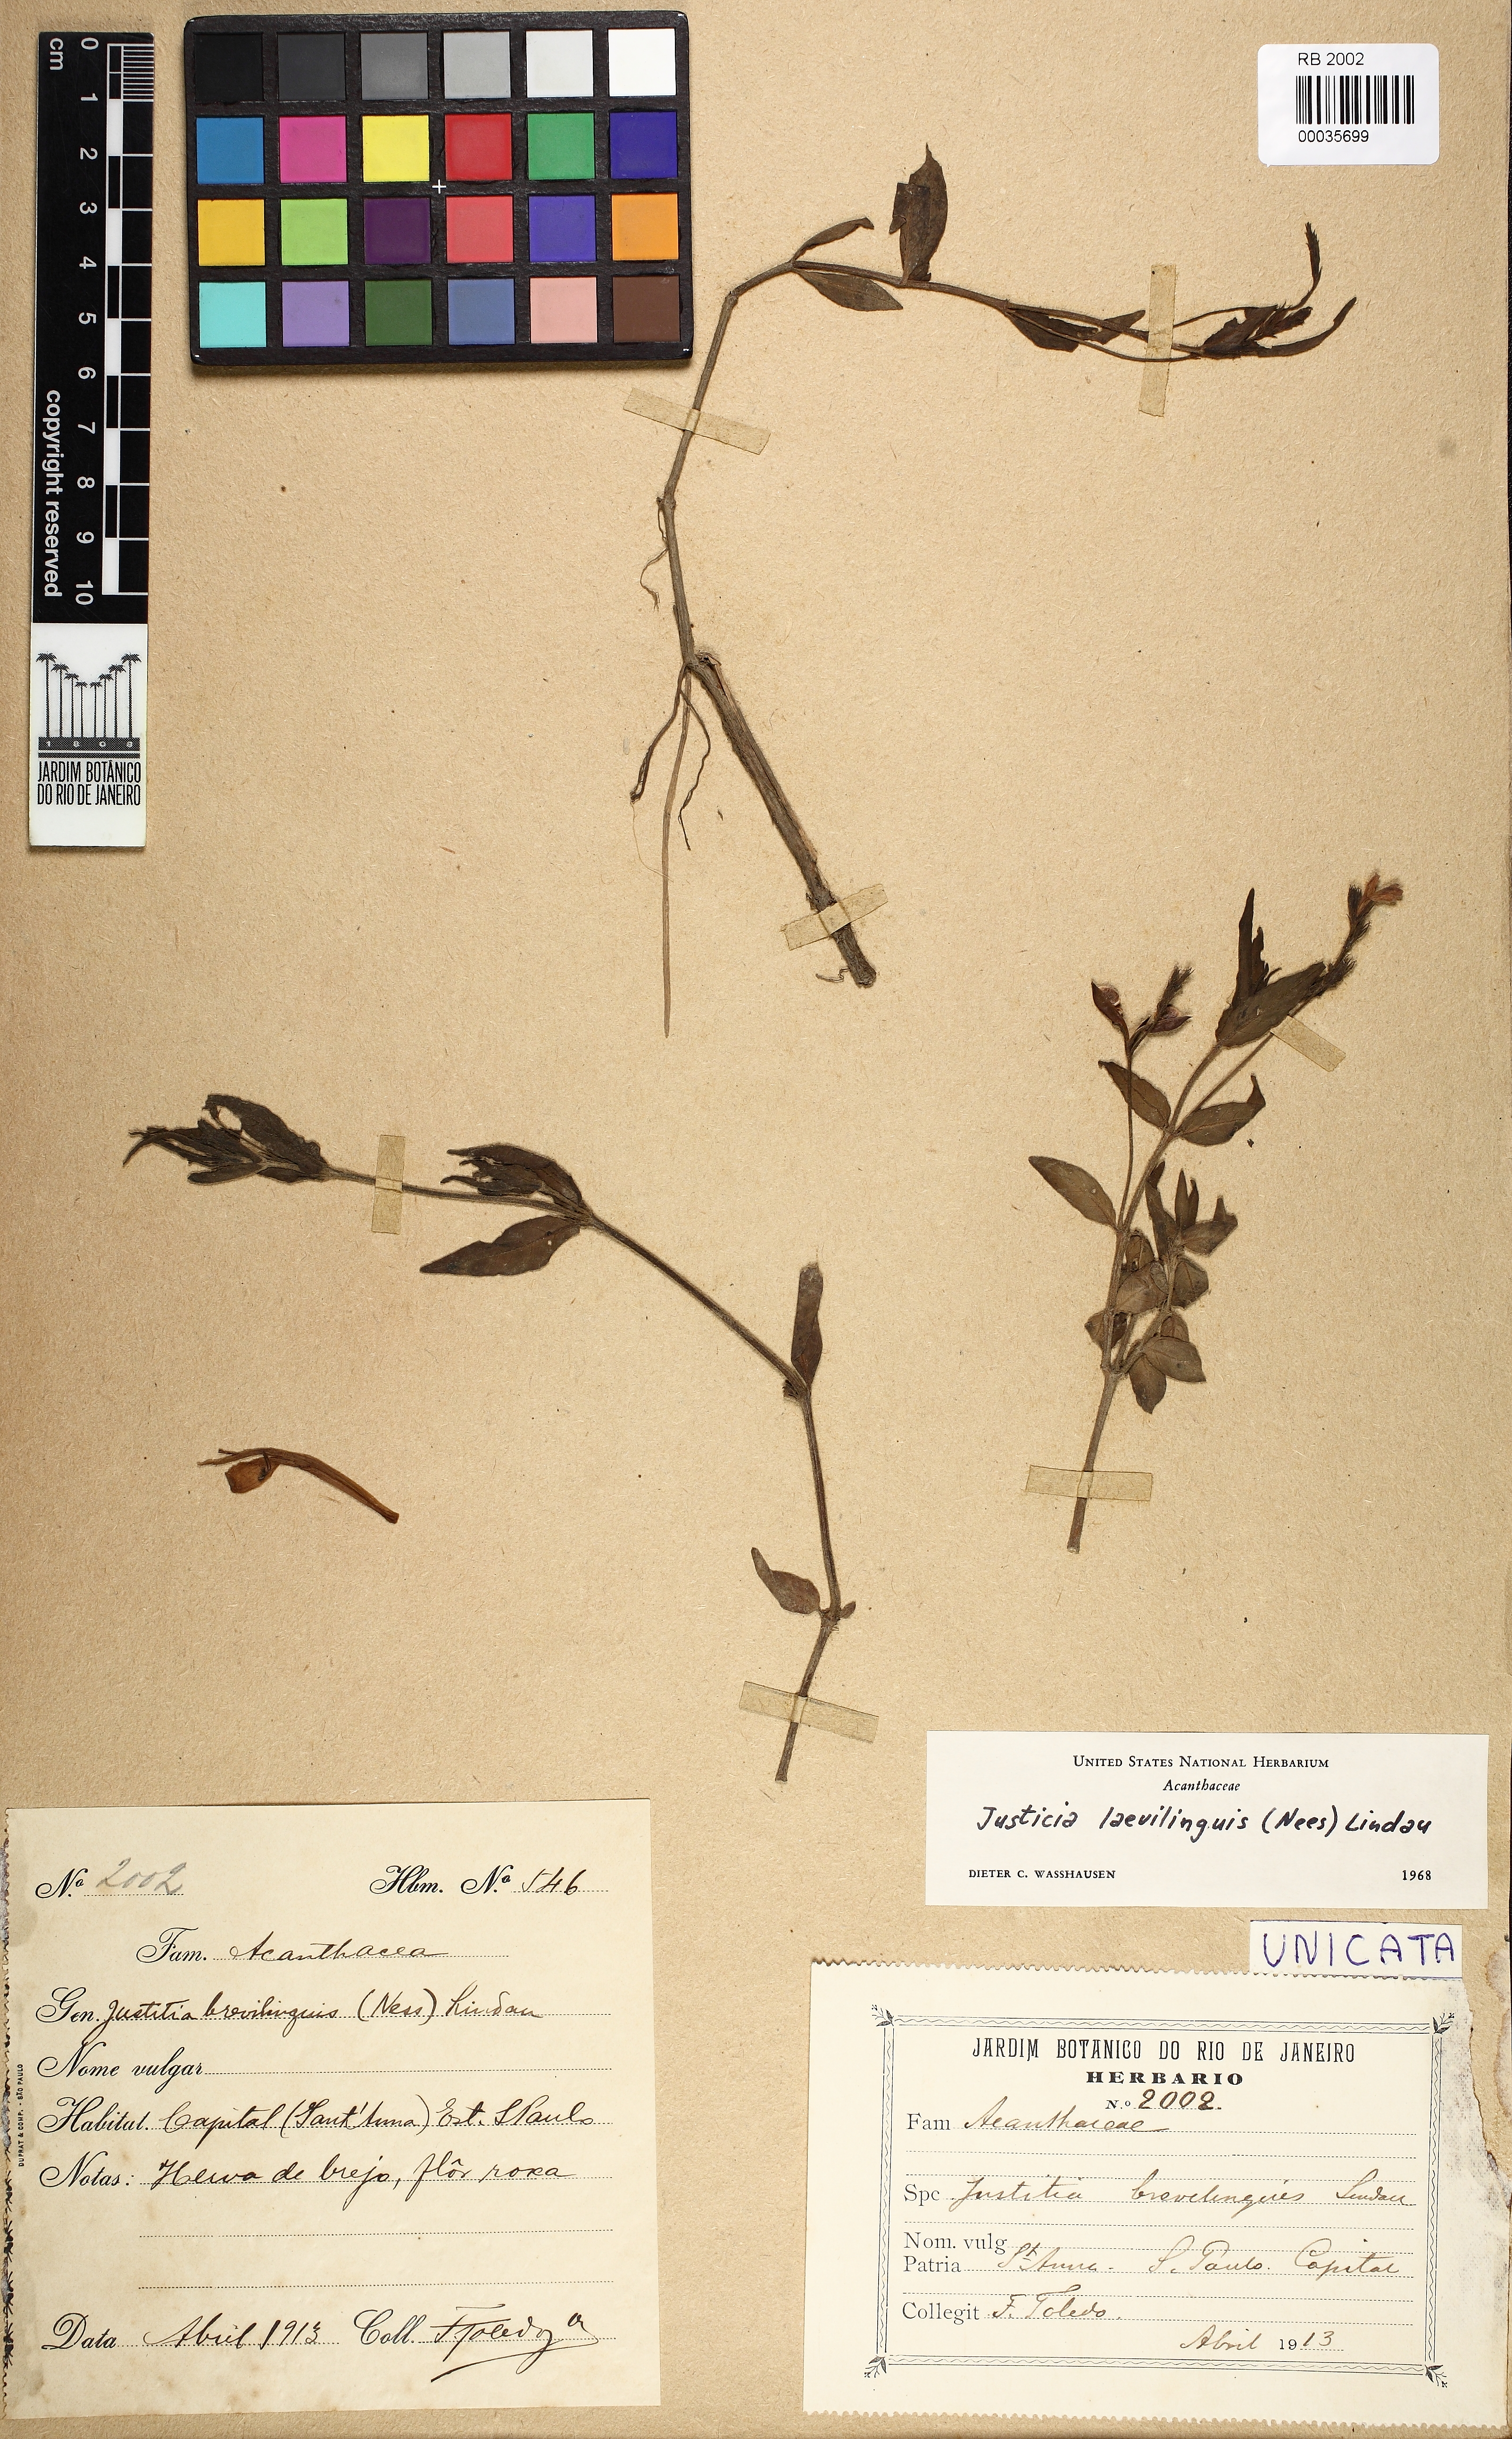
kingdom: Plantae
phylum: Tracheophyta
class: Magnoliopsida
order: Lamiales
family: Acanthaceae
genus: Dianthera
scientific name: Dianthera laevilinguis
